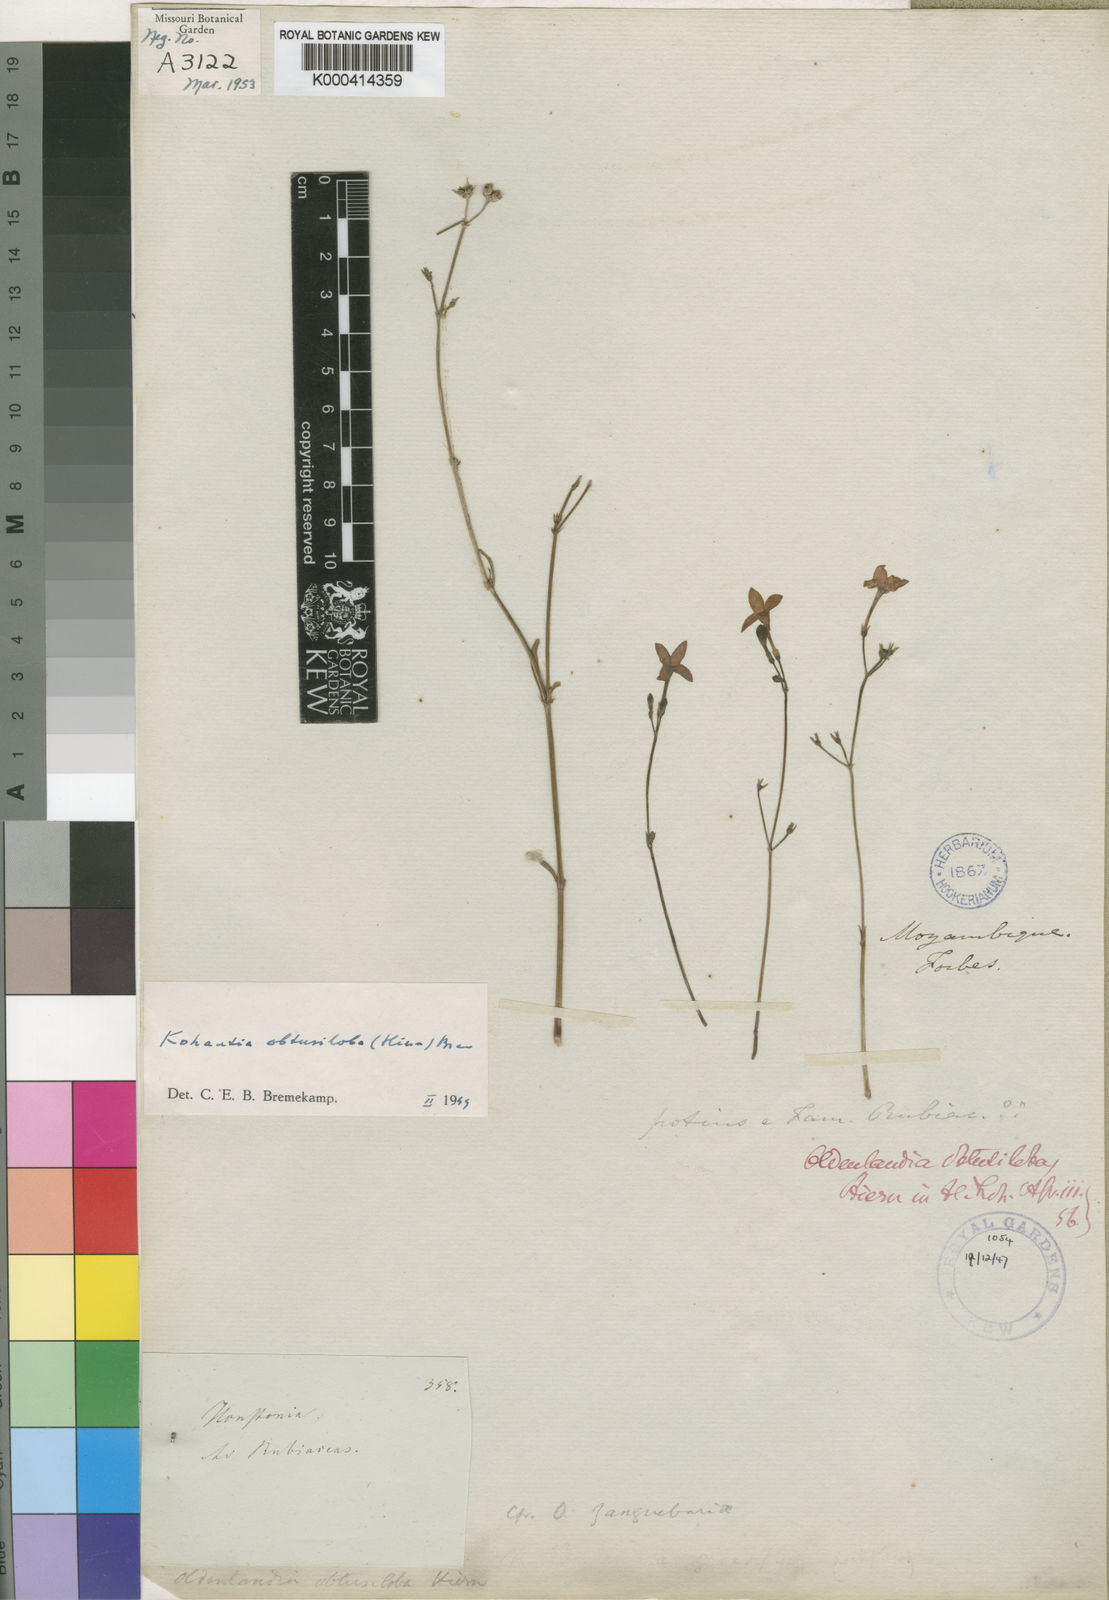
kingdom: Plantae
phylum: Tracheophyta
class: Magnoliopsida
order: Gentianales
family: Rubiaceae
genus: Cordylostigma
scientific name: Cordylostigma obtusilobum
